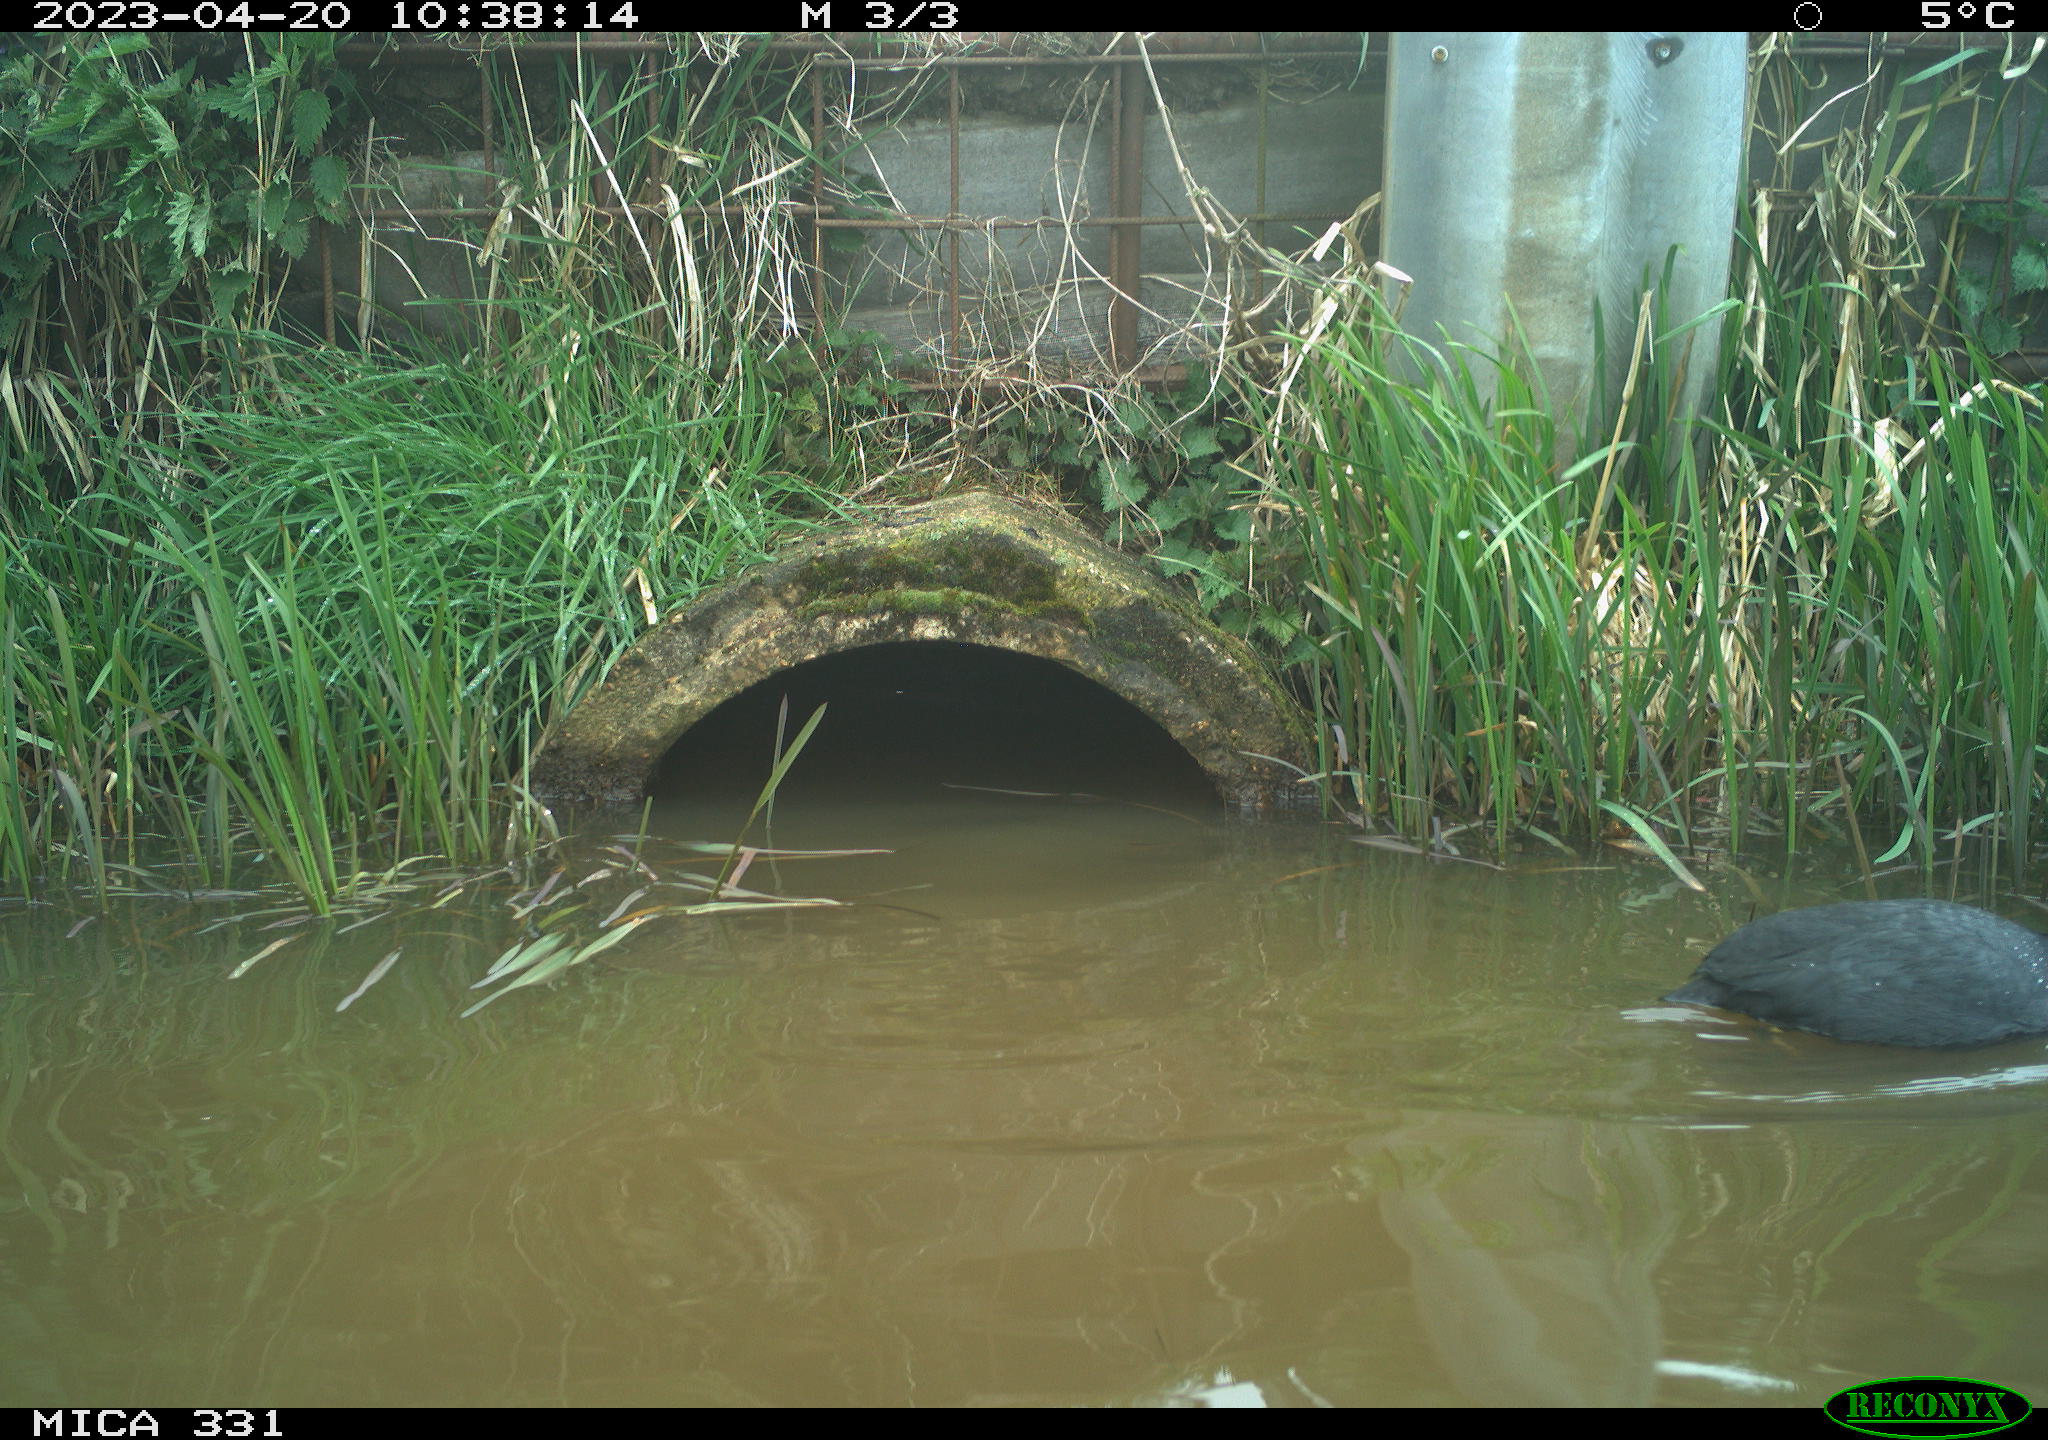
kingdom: Animalia
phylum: Chordata
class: Aves
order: Gruiformes
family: Rallidae
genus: Fulica
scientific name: Fulica atra
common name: Eurasian coot
